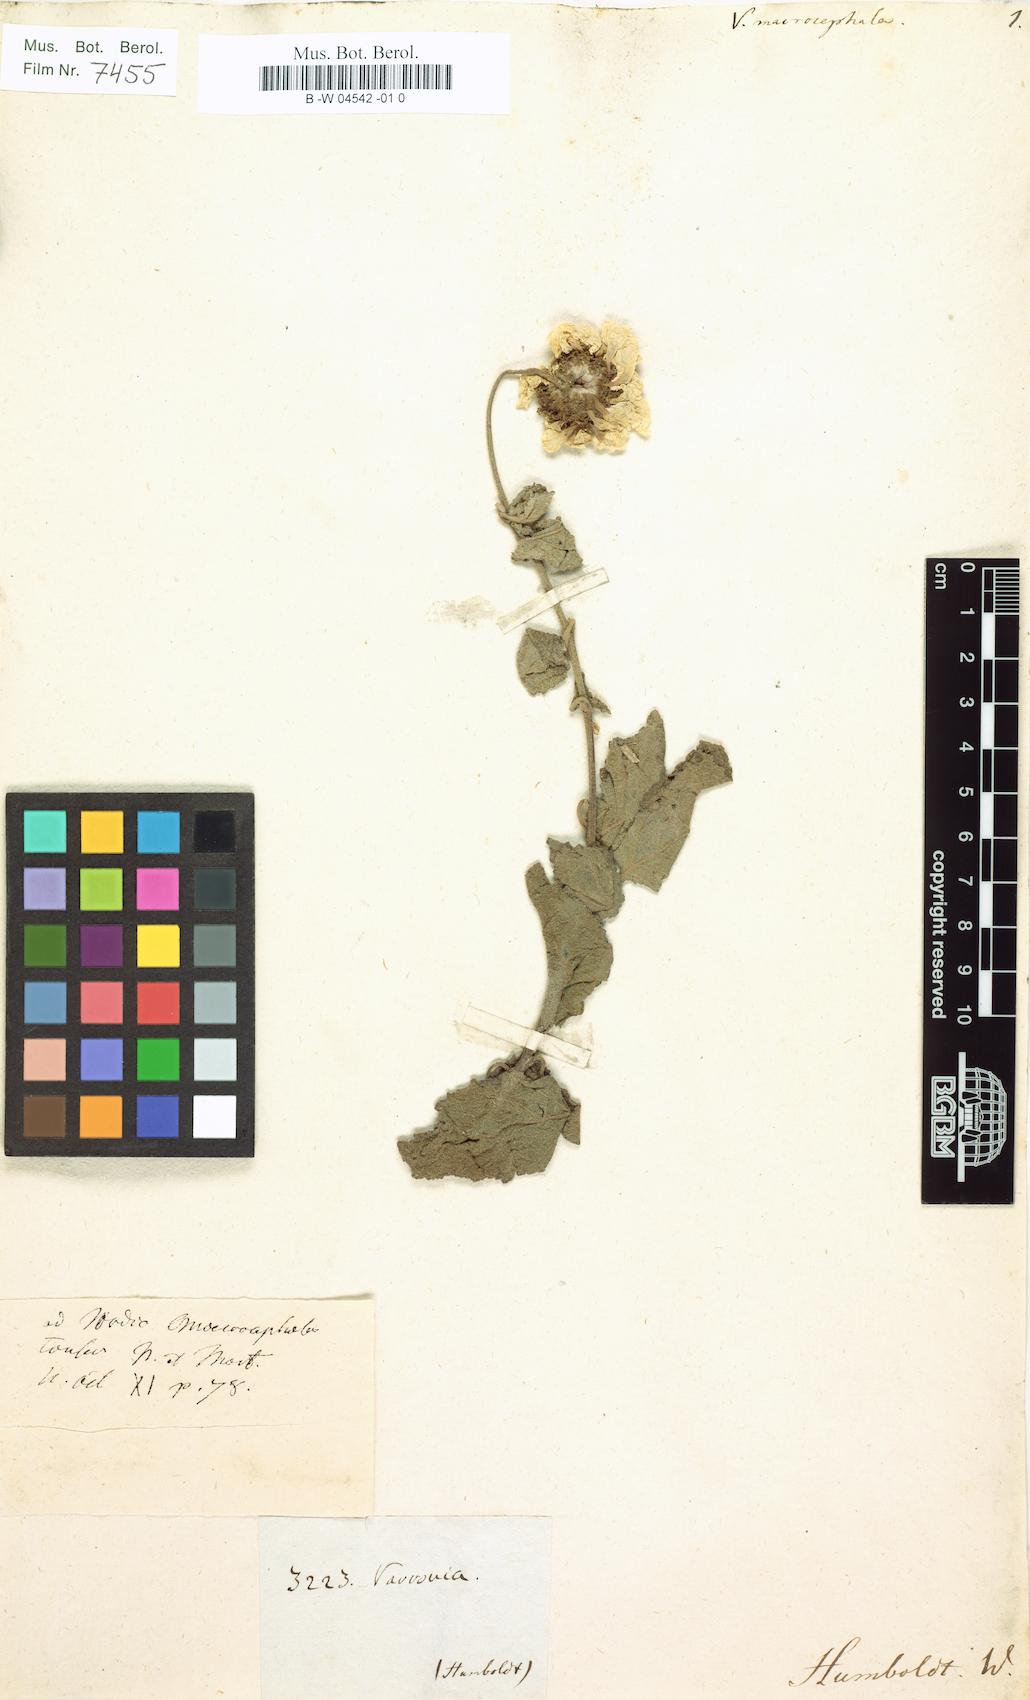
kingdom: Plantae
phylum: Tracheophyta
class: Magnoliopsida
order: Boraginales
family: Cordiaceae
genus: Varronia
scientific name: Varronia macrocephala
